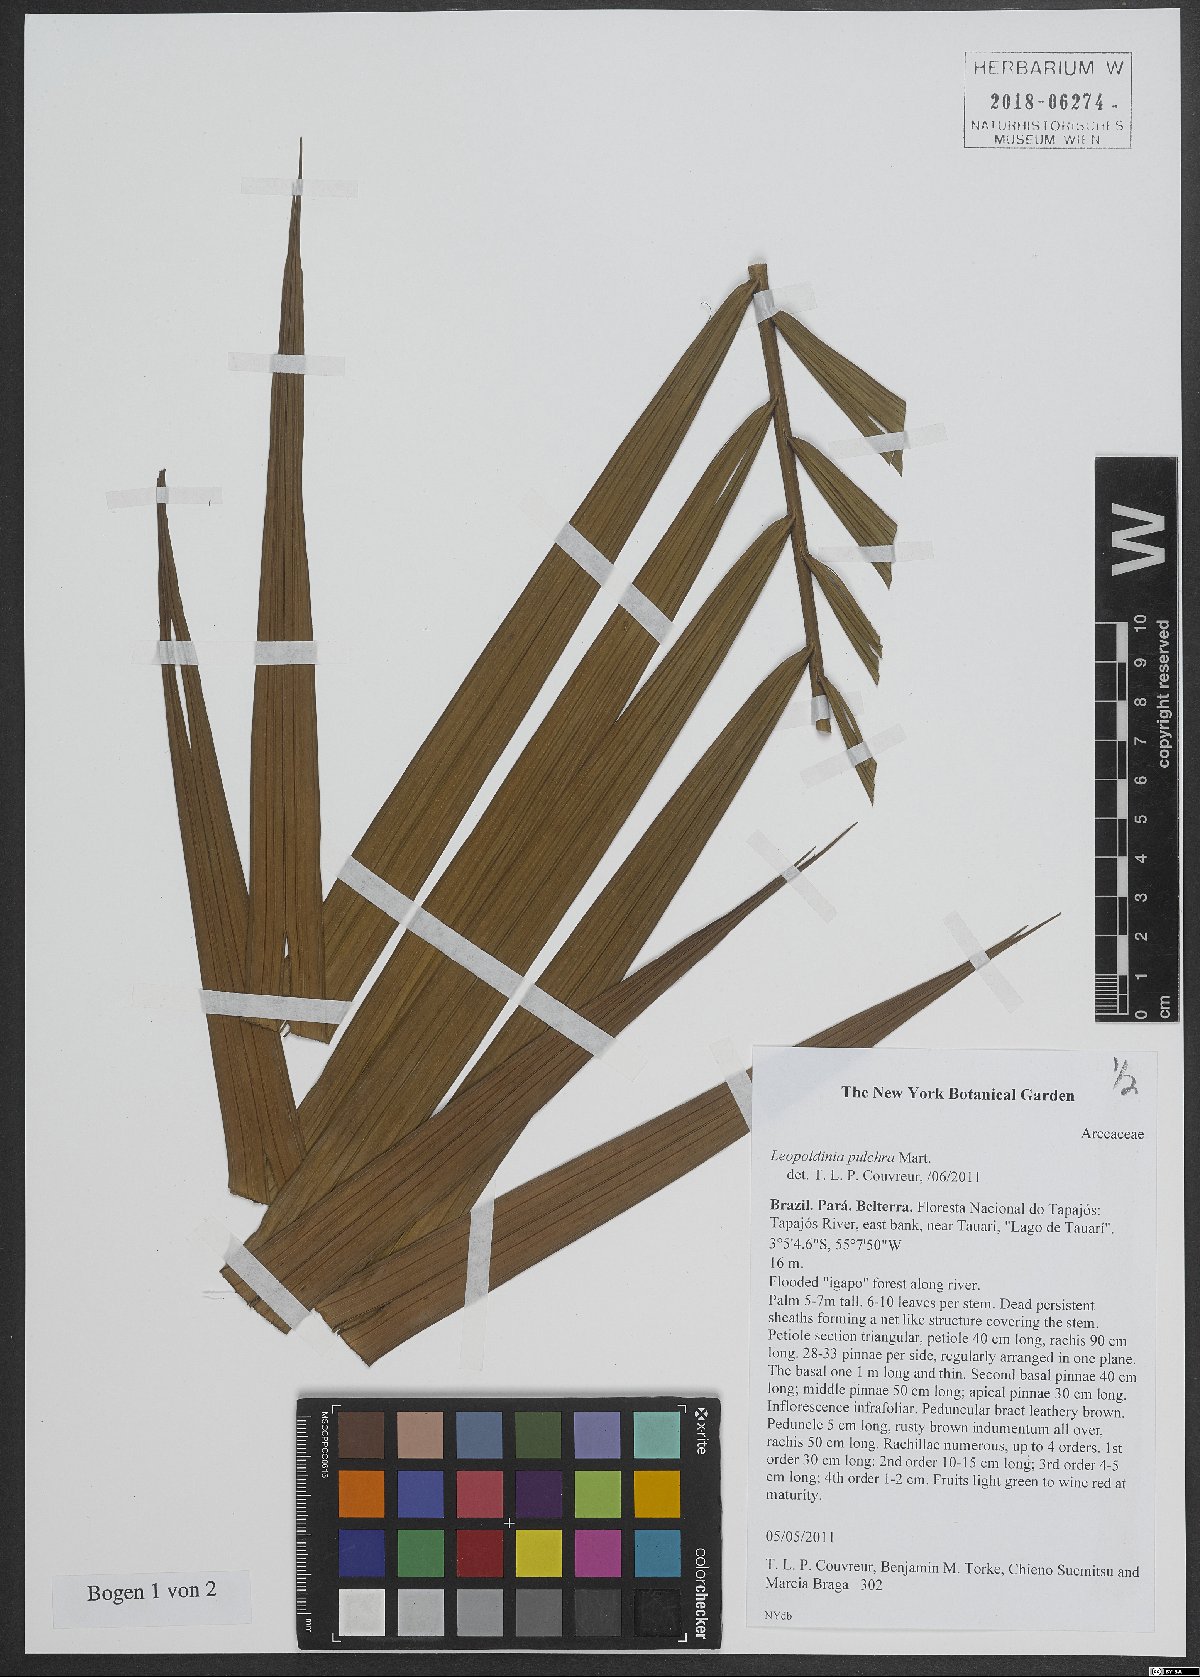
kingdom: Plantae
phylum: Tracheophyta
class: Liliopsida
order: Arecales
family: Arecaceae
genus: Leopoldinia
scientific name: Leopoldinia pulchra
